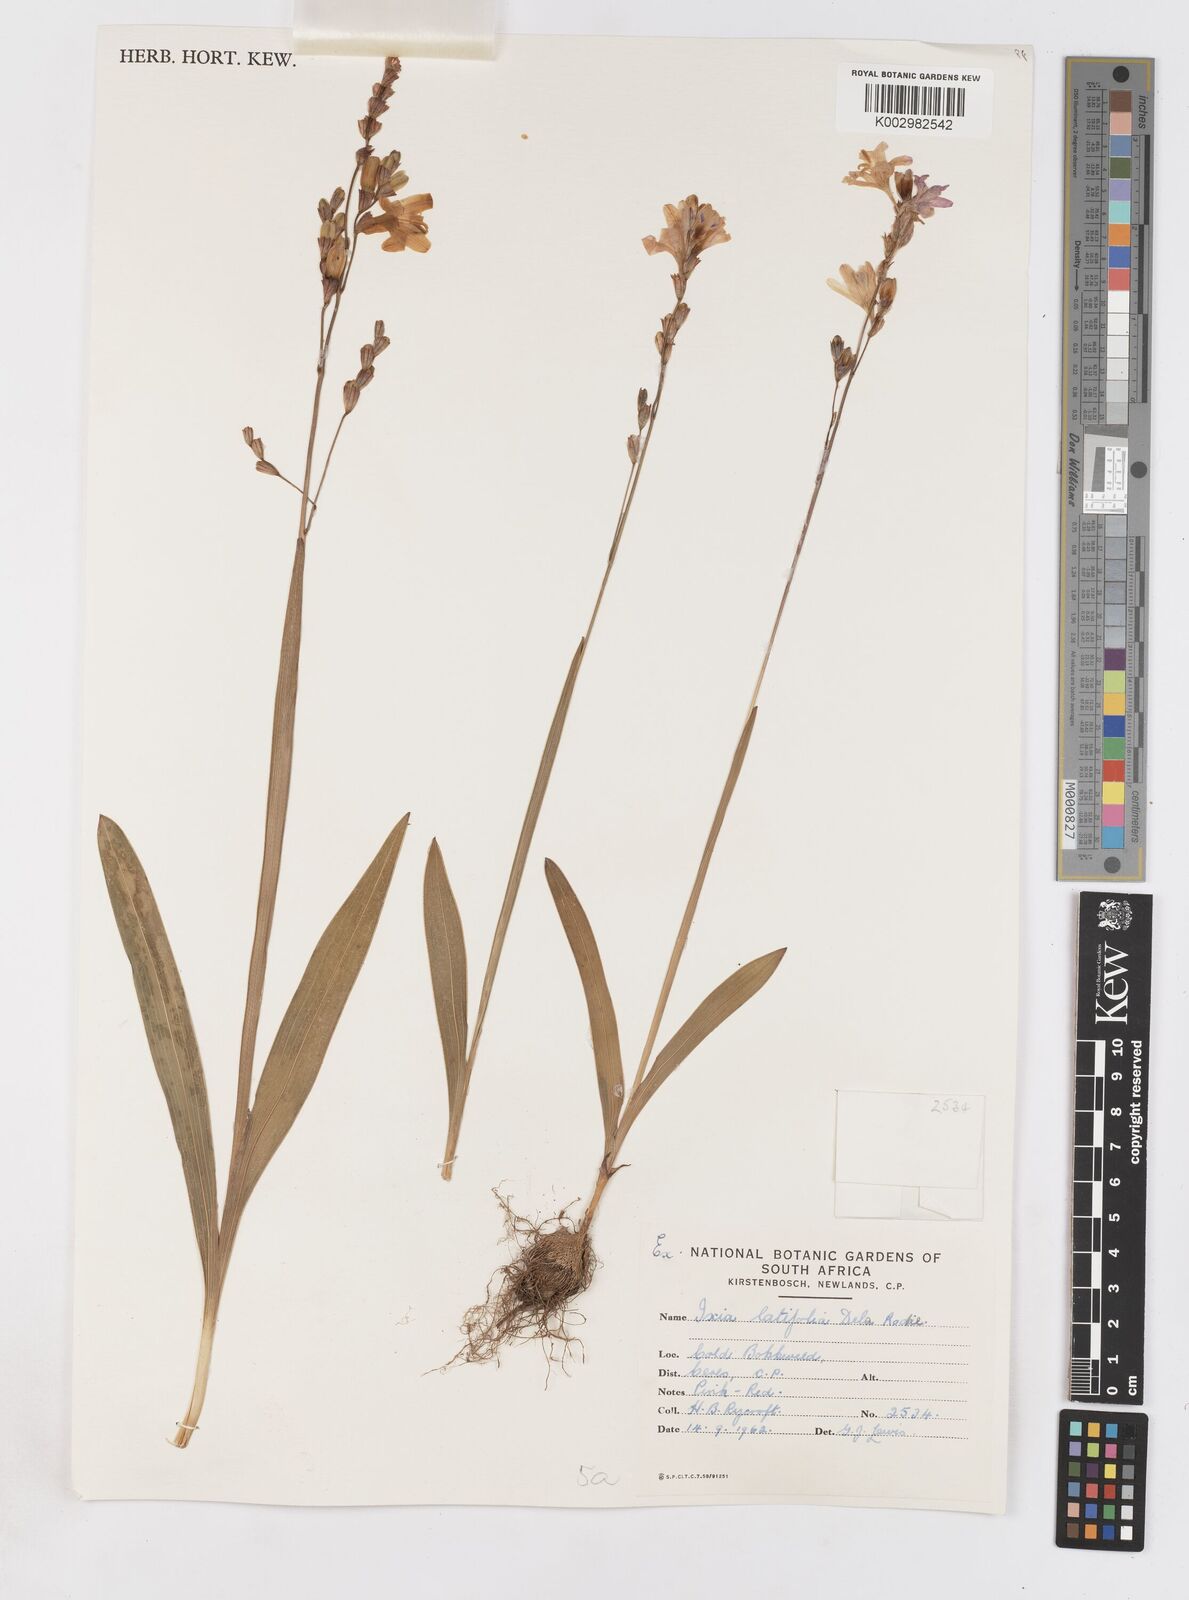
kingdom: Plantae
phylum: Tracheophyta
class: Liliopsida
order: Asparagales
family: Iridaceae
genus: Ixia
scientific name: Ixia latifolia
